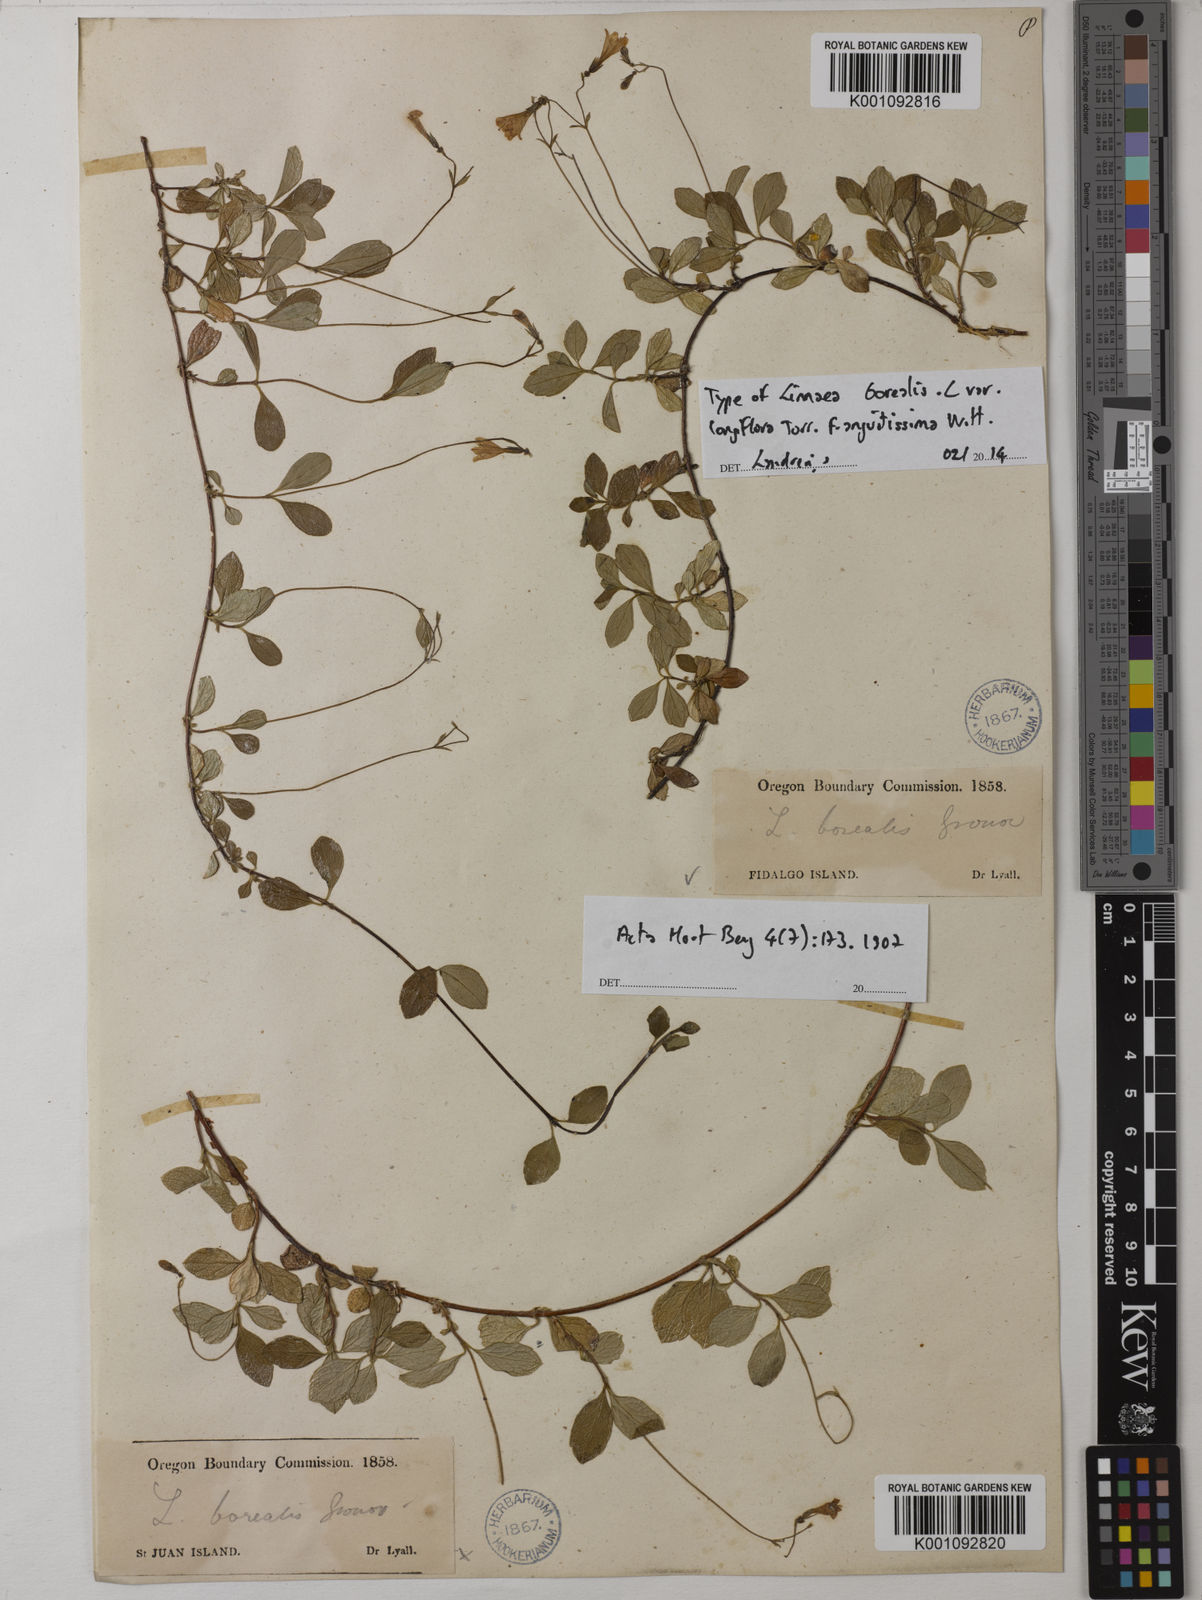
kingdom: Plantae
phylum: Tracheophyta
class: Magnoliopsida
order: Dipsacales
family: Caprifoliaceae
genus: Linnaea
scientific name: Linnaea borealis
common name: Twinflower
